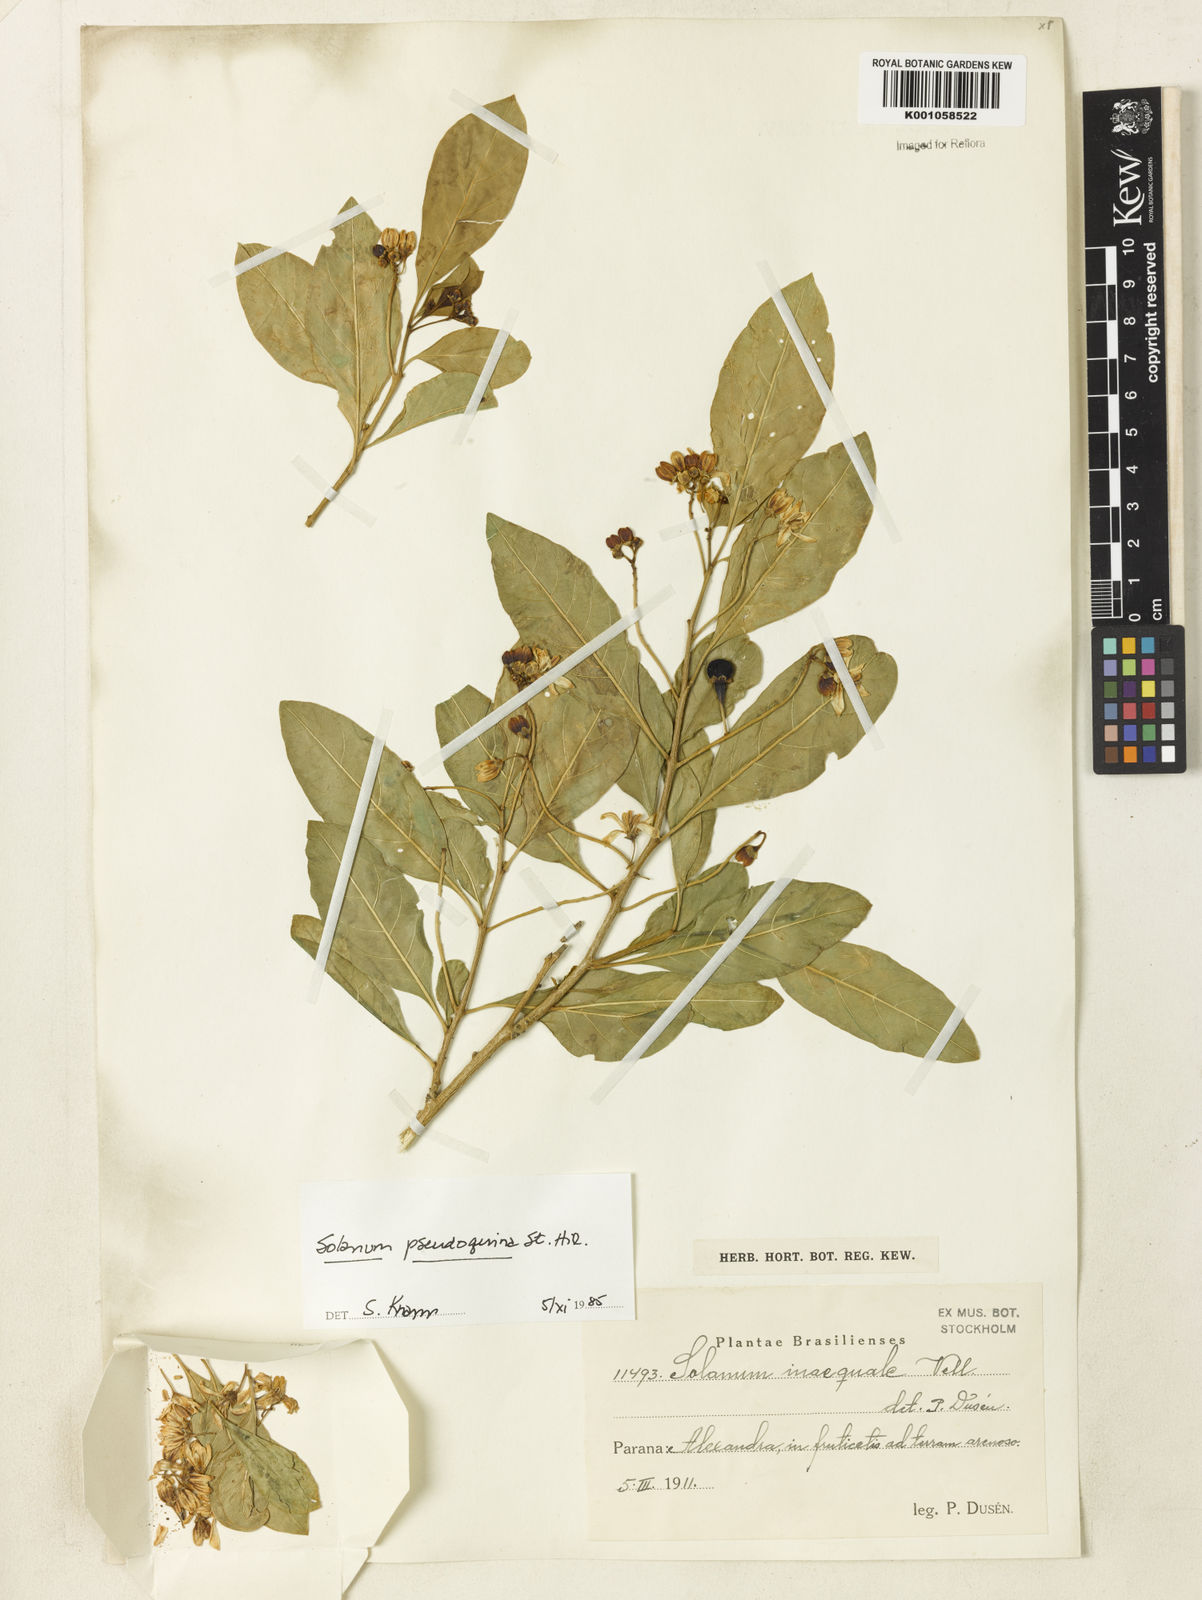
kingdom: Plantae
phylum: Tracheophyta
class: Magnoliopsida
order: Solanales
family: Solanaceae
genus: Solanum
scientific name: Solanum pseudoquina
